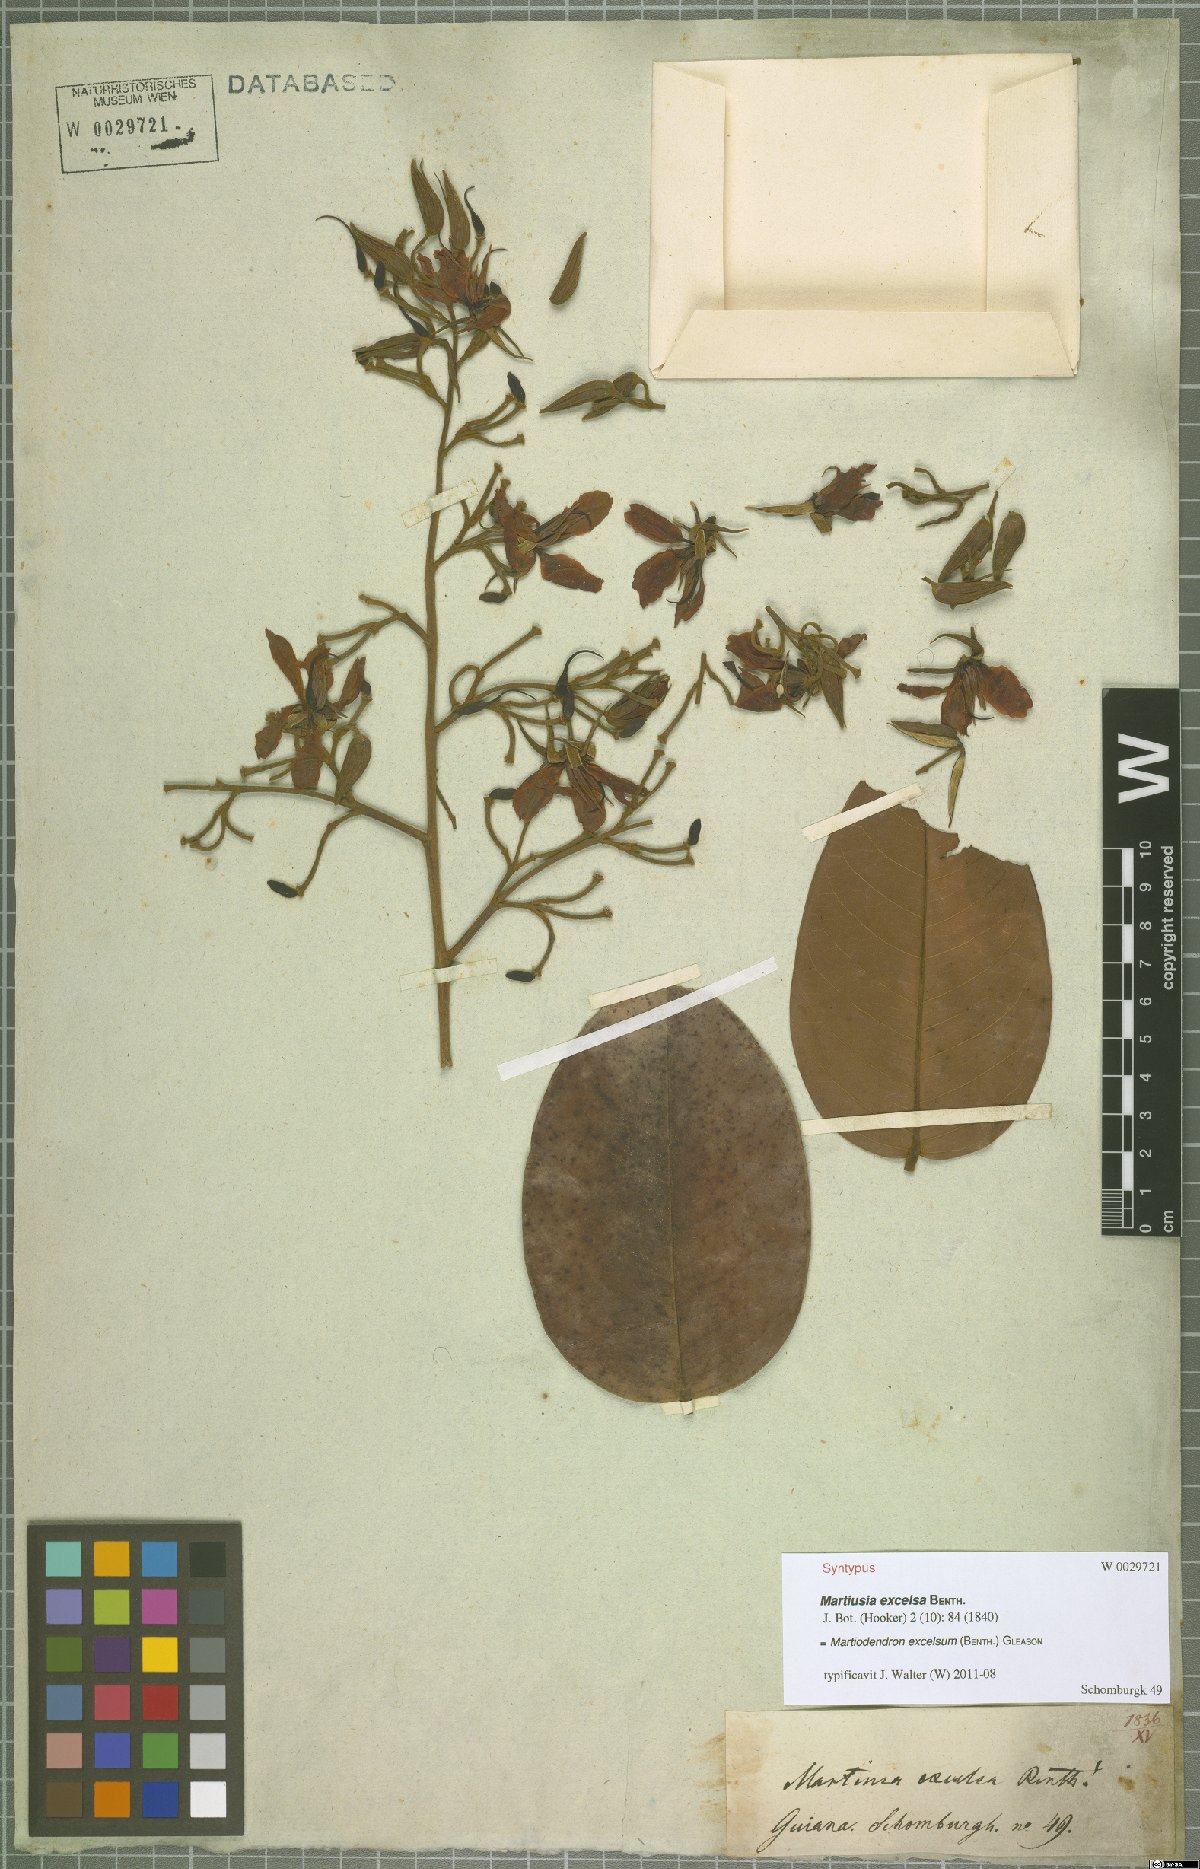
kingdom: Plantae
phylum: Tracheophyta
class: Magnoliopsida
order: Fabales
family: Fabaceae
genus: Martiodendron
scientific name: Martiodendron excelsum
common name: Tatabuballi
